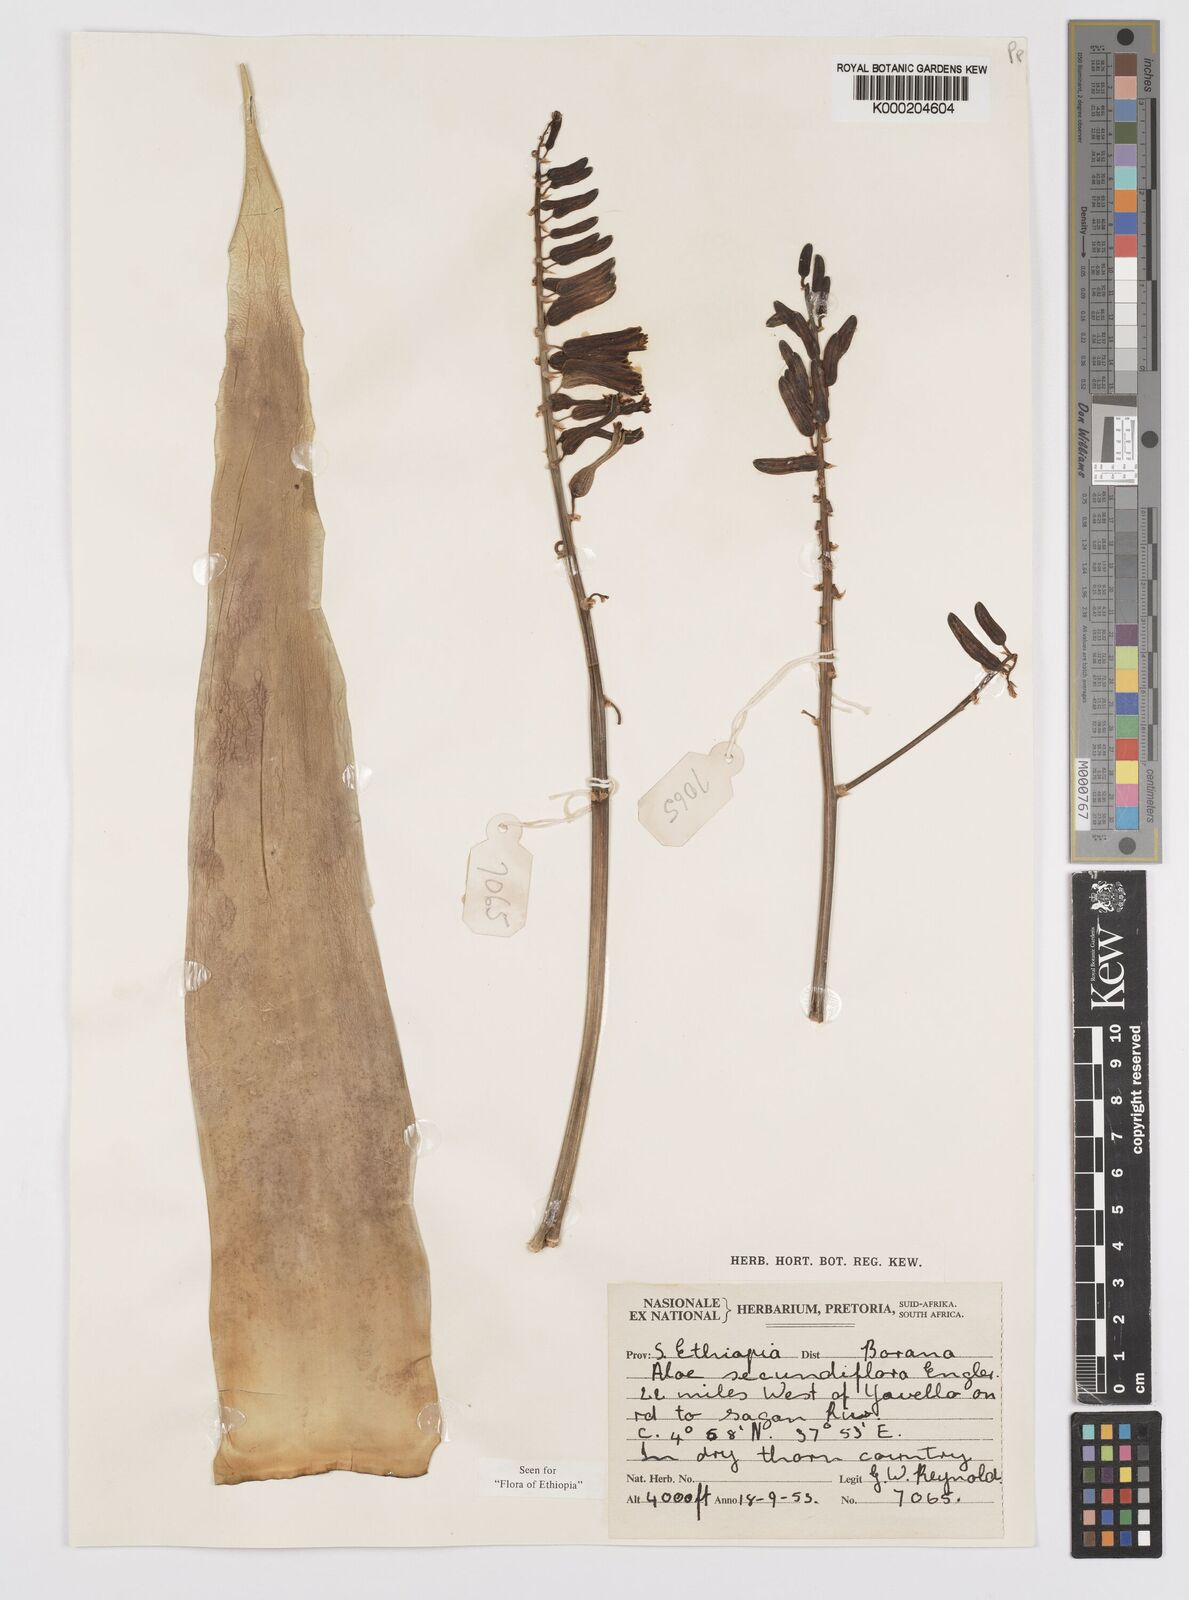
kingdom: Plantae
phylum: Tracheophyta
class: Liliopsida
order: Asparagales
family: Asphodelaceae
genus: Aloe
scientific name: Aloe secundiflora
